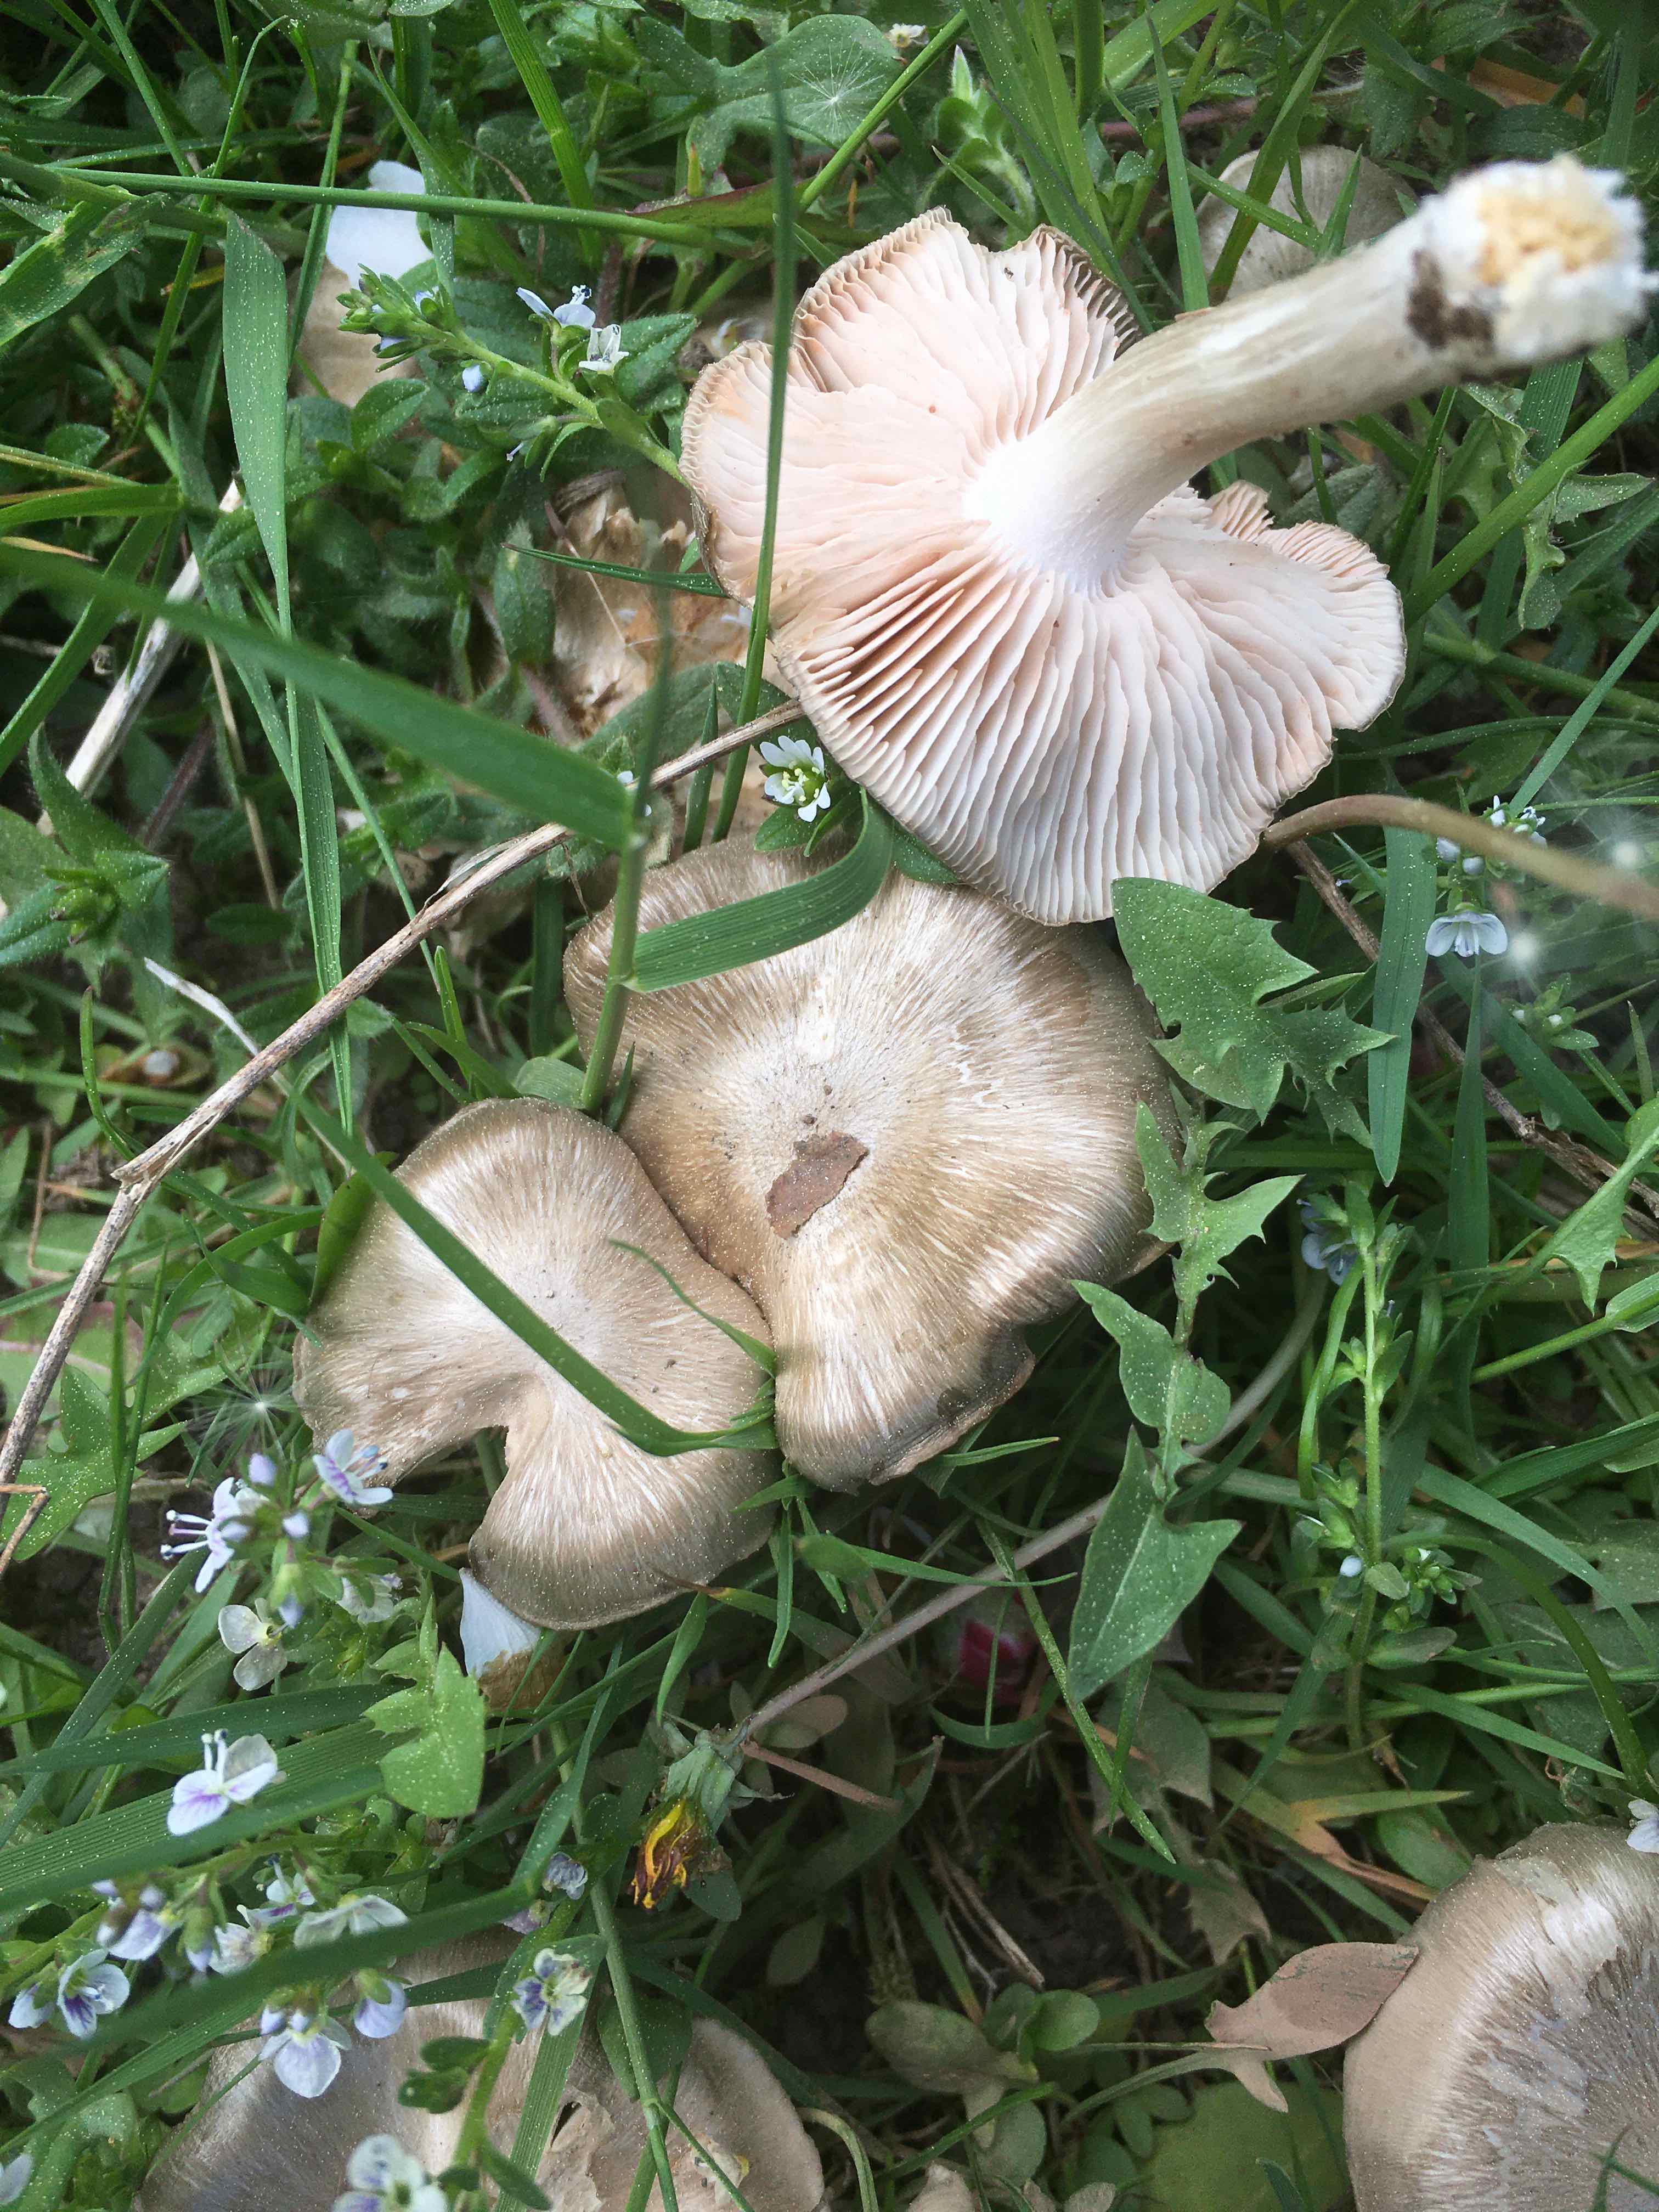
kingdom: Fungi
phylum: Basidiomycota
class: Agaricomycetes
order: Agaricales
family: Entolomataceae
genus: Entoloma
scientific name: Entoloma clypeatum
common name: flammet rødblad
